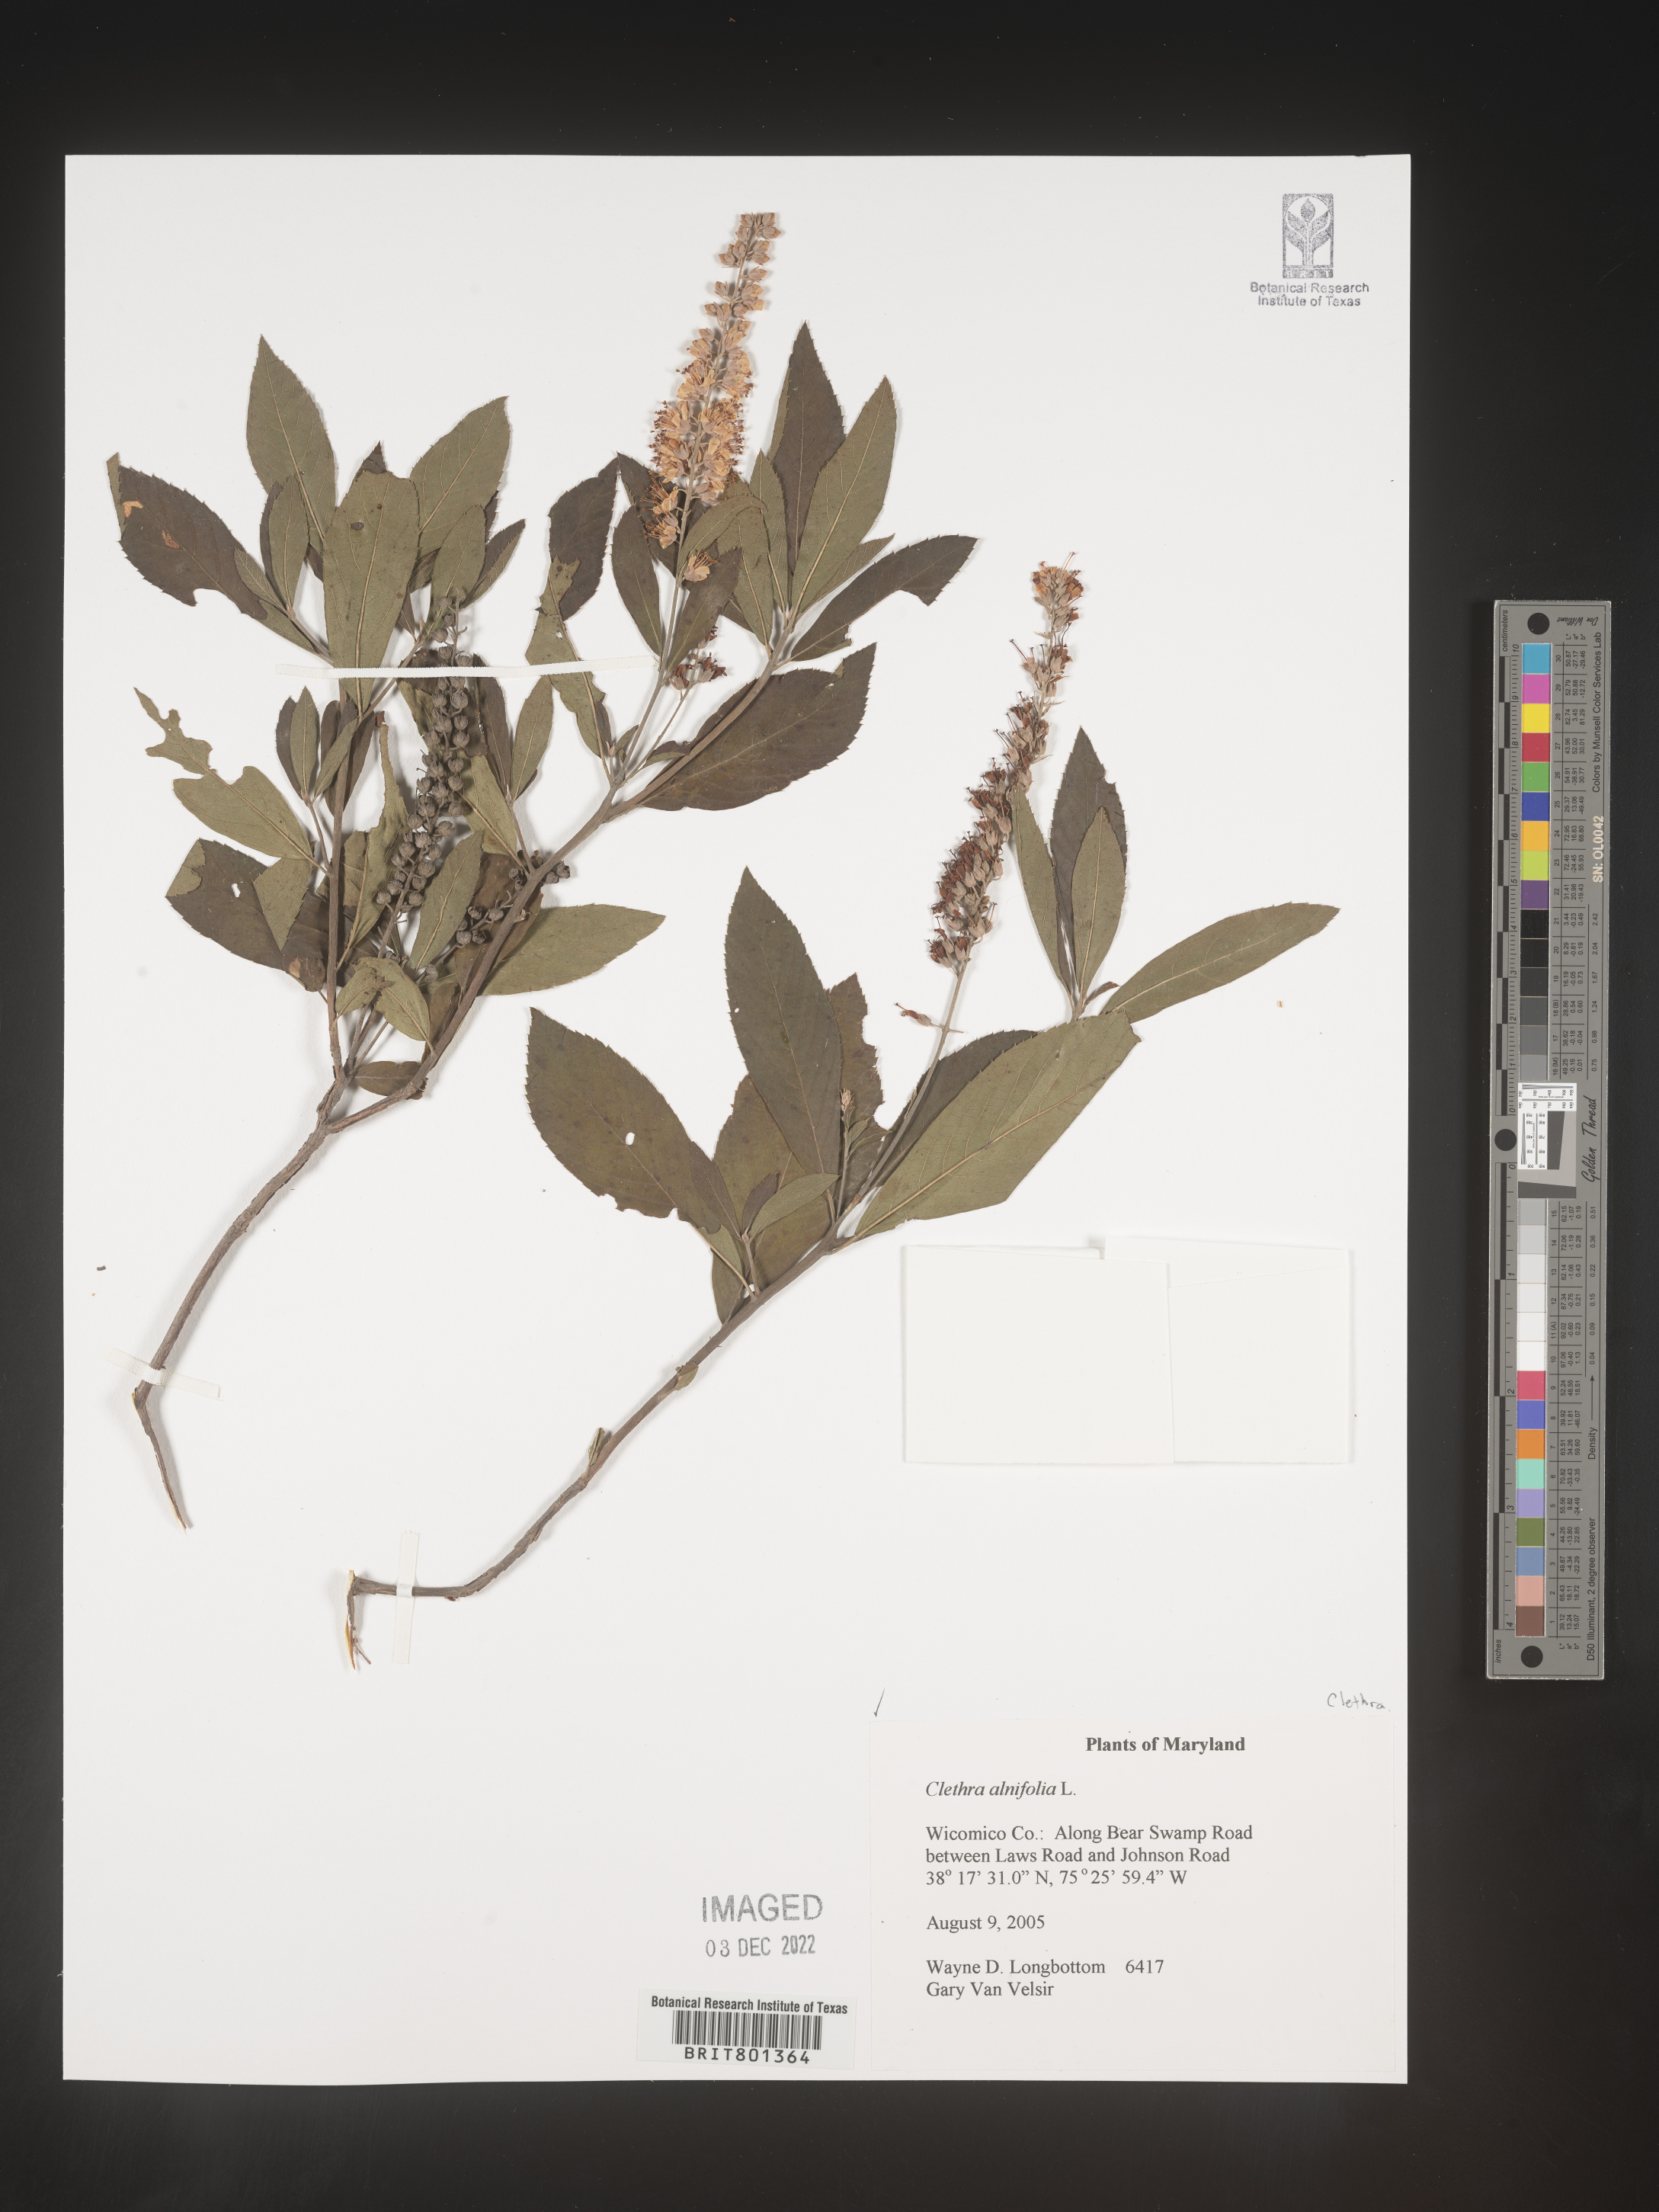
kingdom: Plantae
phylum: Tracheophyta
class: Magnoliopsida
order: Ericales
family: Clethraceae
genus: Clethra
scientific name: Clethra alnifolia
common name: Sweet pepperbush
